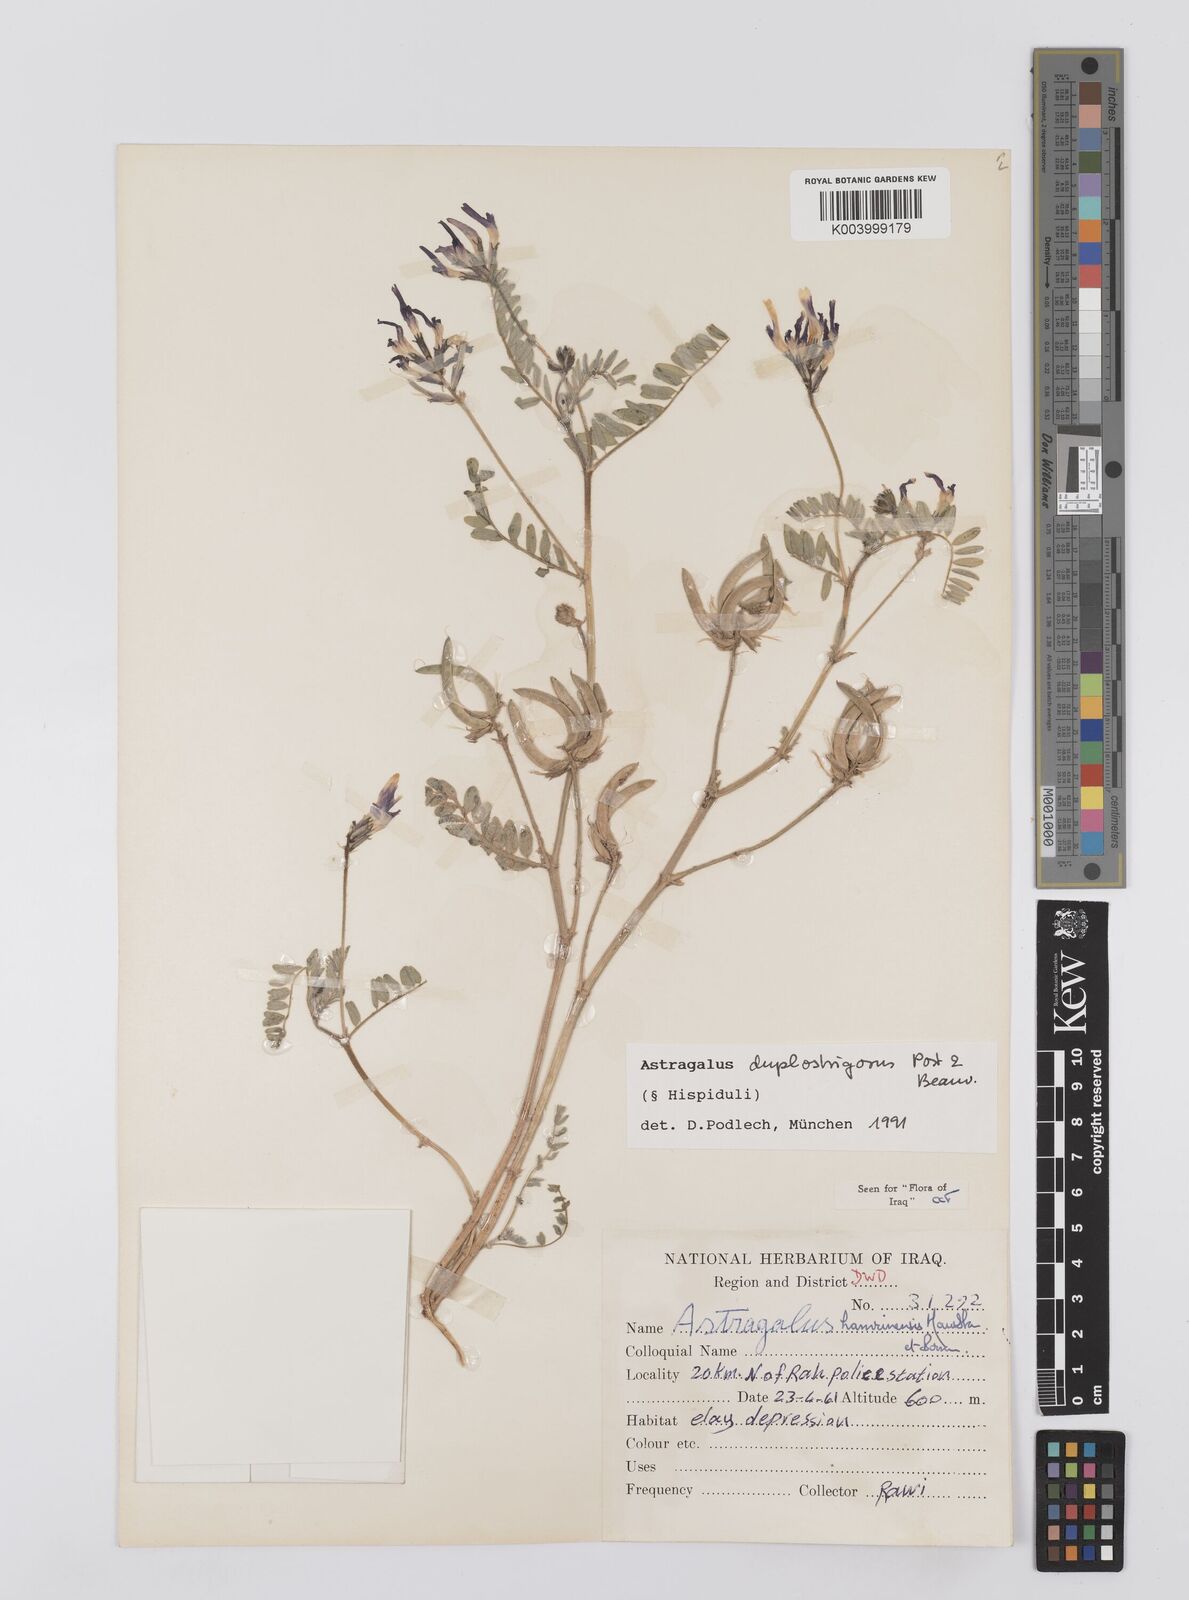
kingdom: Plantae
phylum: Tracheophyta
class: Magnoliopsida
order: Fabales
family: Fabaceae
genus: Astragalus
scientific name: Astragalus duplostrigosus
